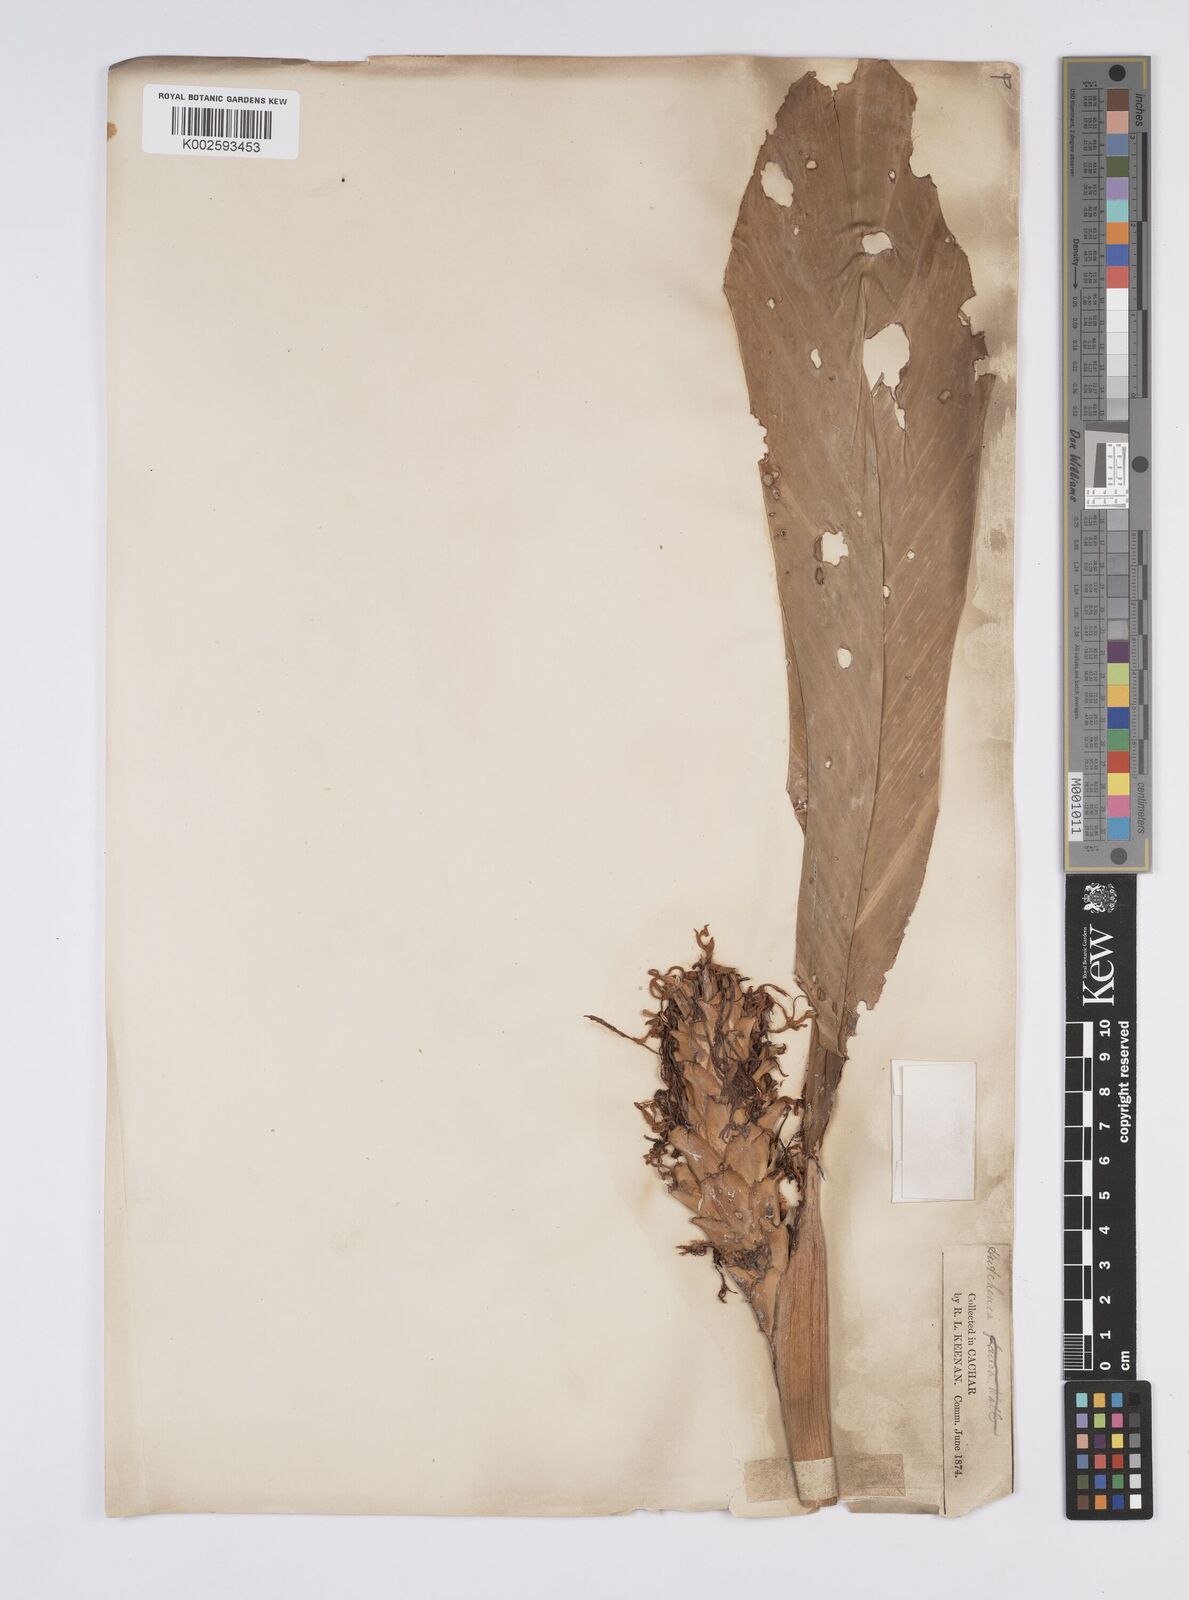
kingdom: Plantae
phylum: Tracheophyta
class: Liliopsida
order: Zingiberales
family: Zingiberaceae
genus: Larsenianthus
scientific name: Larsenianthus careyanus
